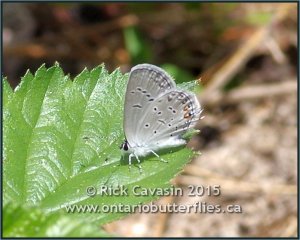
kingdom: Animalia
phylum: Arthropoda
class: Insecta
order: Lepidoptera
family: Lycaenidae
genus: Elkalyce
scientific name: Elkalyce comyntas
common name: Eastern Tailed-Blue
